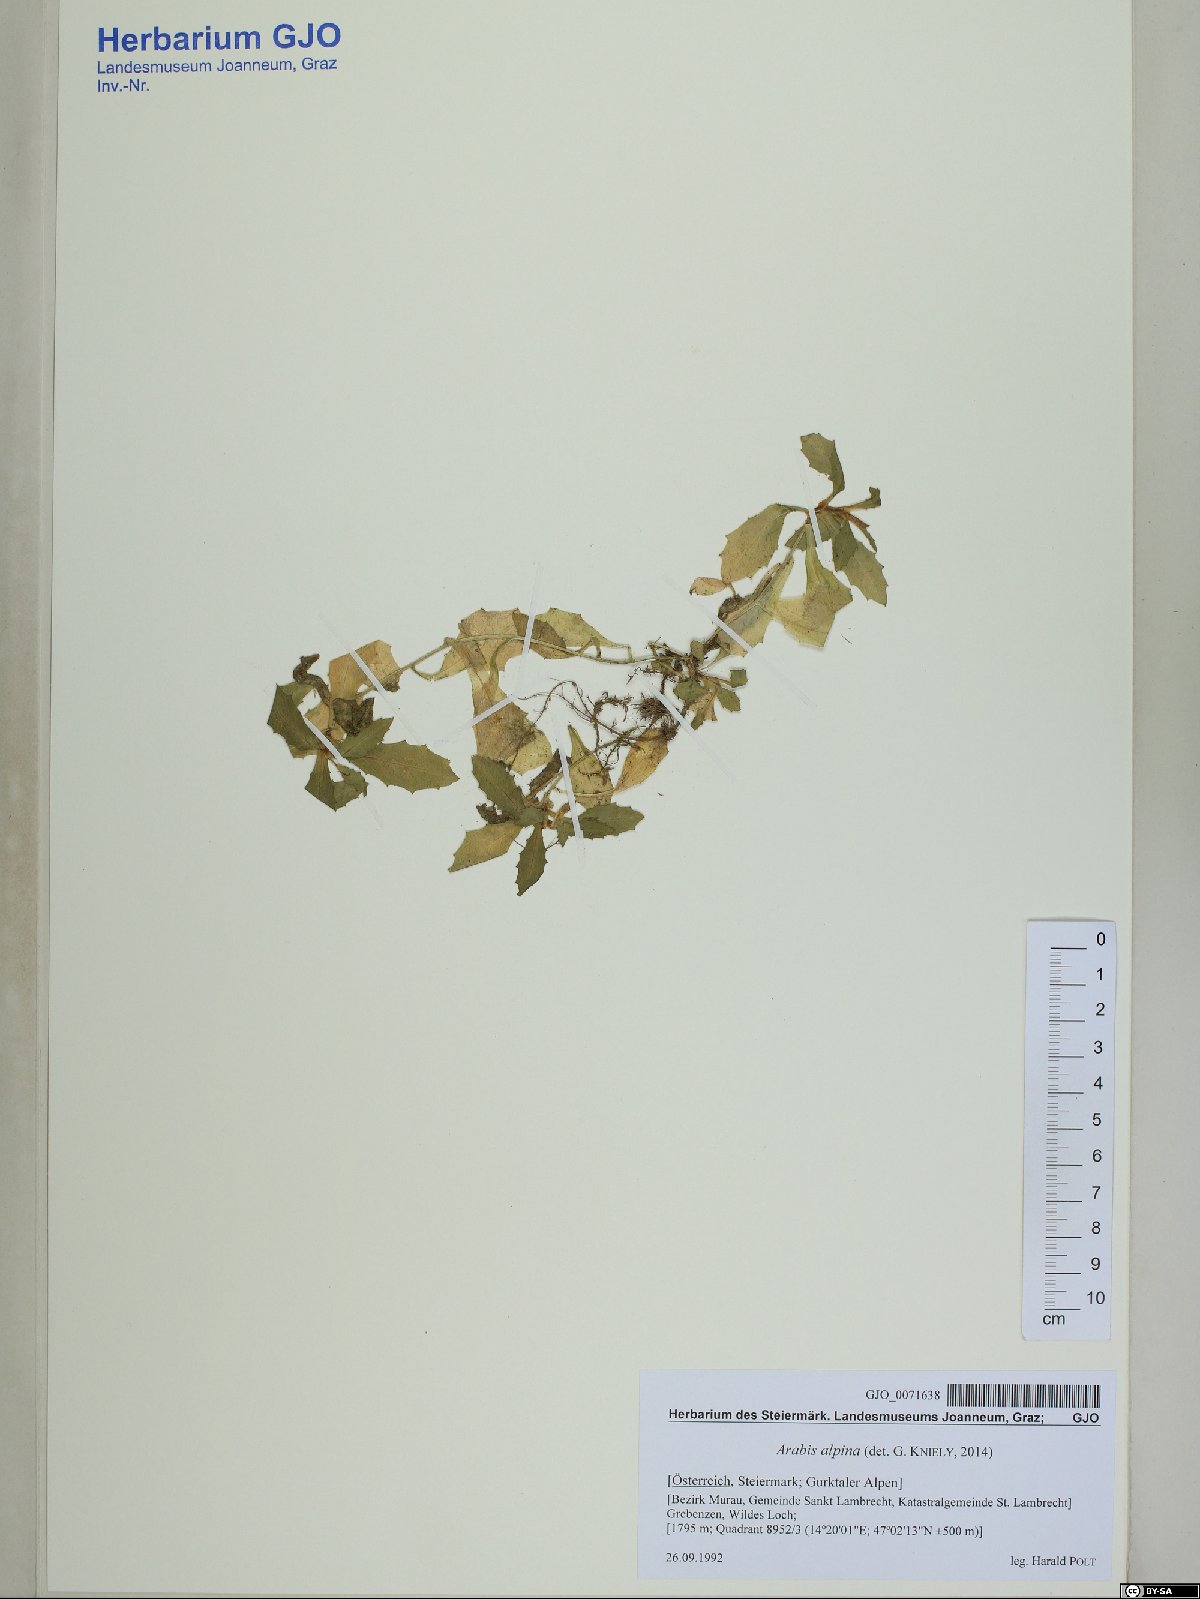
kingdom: Plantae
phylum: Tracheophyta
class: Magnoliopsida
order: Brassicales
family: Brassicaceae
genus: Arabis
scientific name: Arabis alpina
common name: Alpine rock-cress
